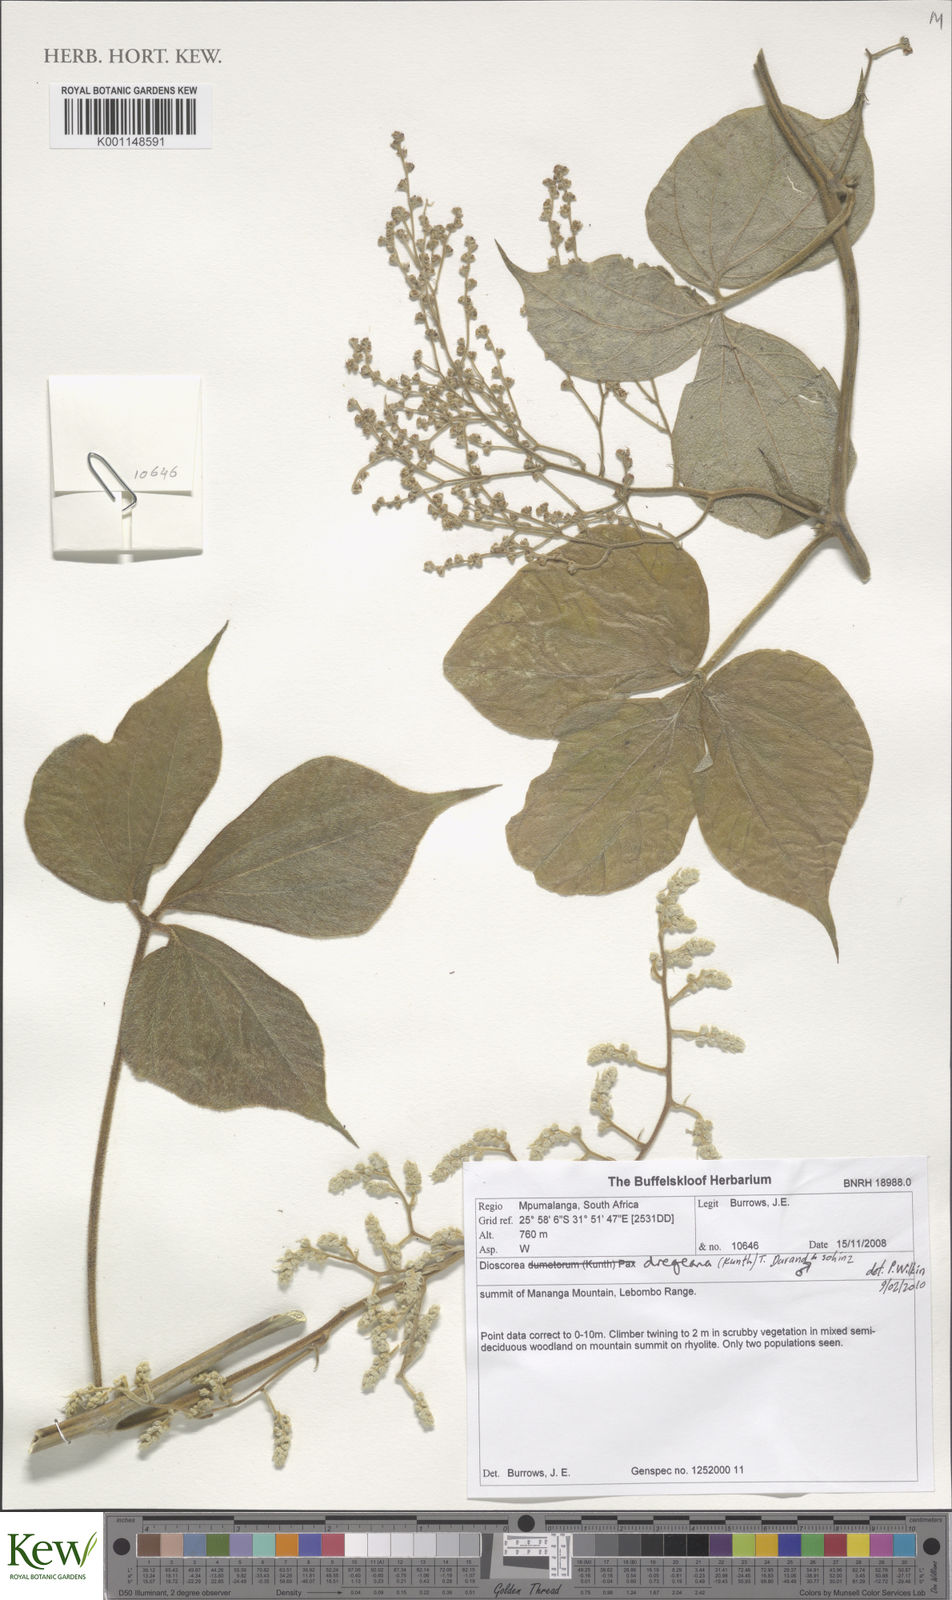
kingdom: Plantae
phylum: Tracheophyta
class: Liliopsida
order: Dioscoreales
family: Dioscoreaceae
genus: Dioscorea
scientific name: Dioscorea dregeana
